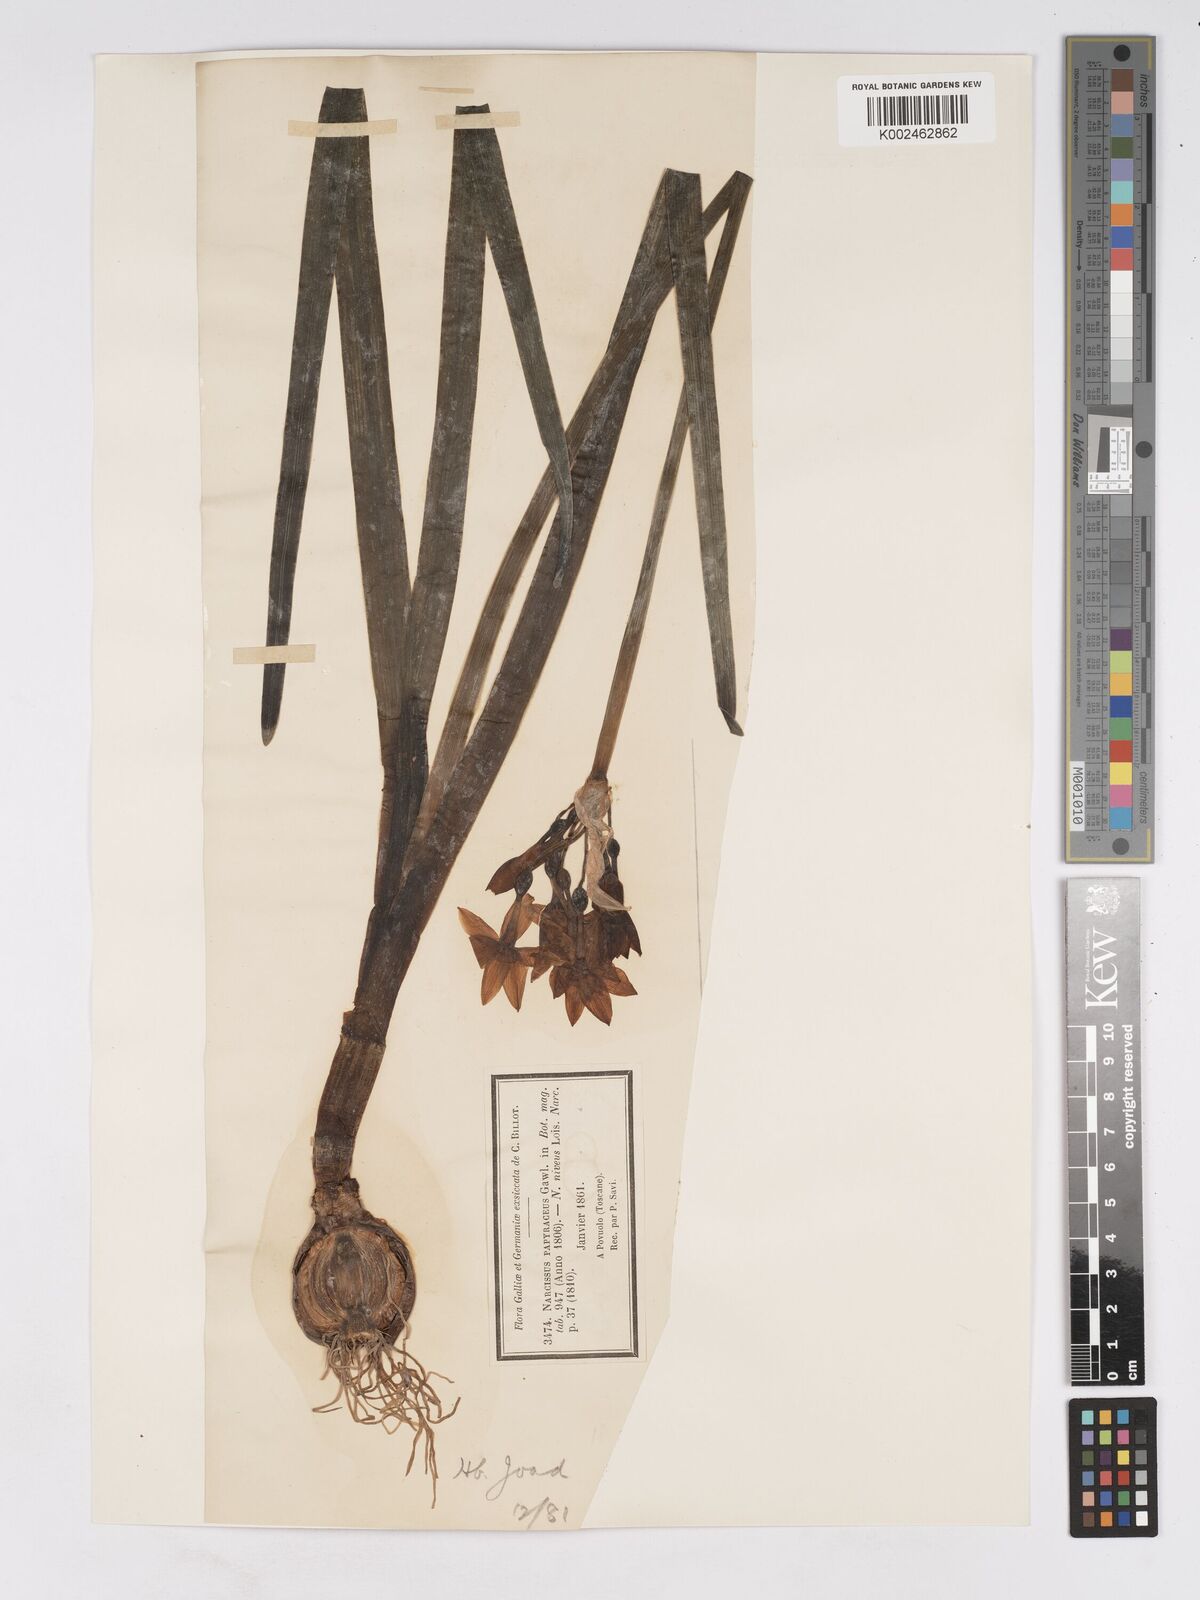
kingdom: Plantae
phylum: Tracheophyta
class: Liliopsida
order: Asparagales
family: Amaryllidaceae
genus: Narcissus
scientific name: Narcissus tazetta
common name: Bunch-flowered daffodil
